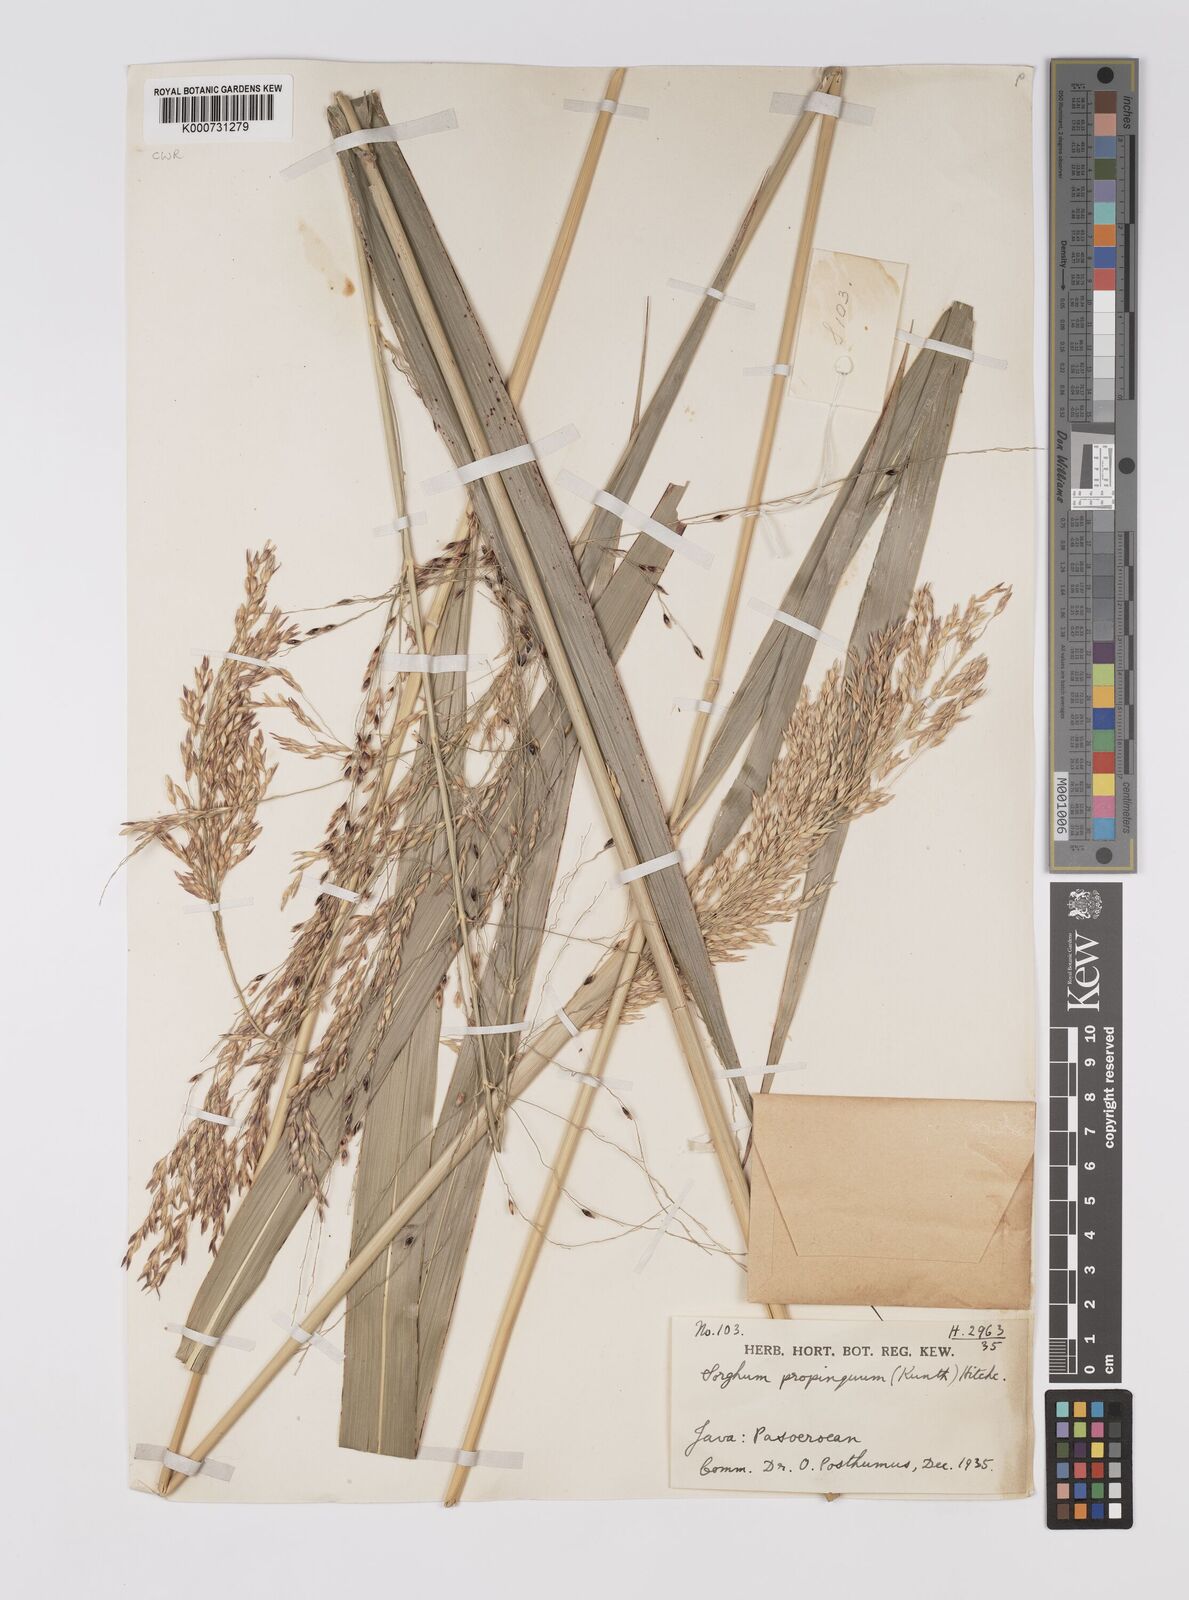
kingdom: Plantae
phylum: Tracheophyta
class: Liliopsida
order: Poales
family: Poaceae
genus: Sorghum
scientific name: Sorghum propinquum
